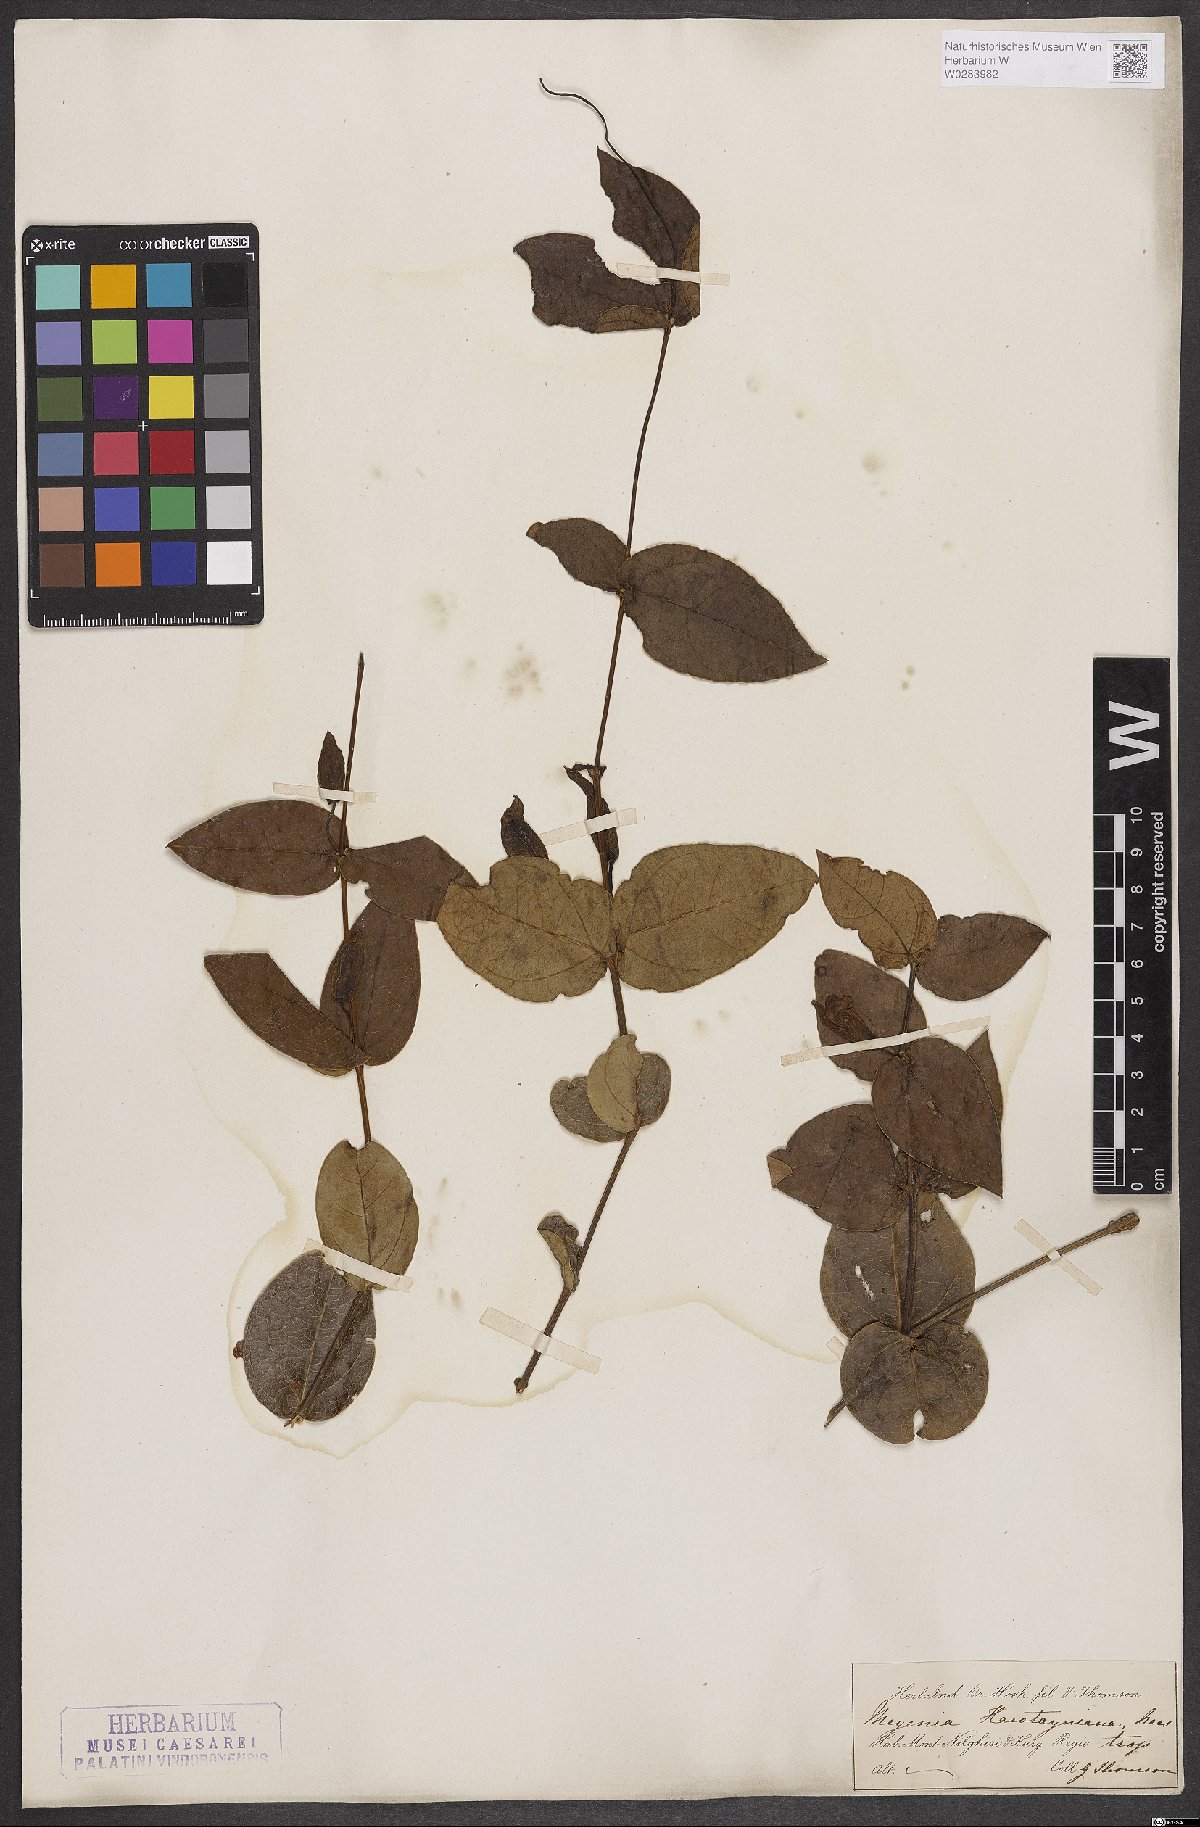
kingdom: Plantae
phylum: Tracheophyta
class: Magnoliopsida
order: Lamiales
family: Acanthaceae
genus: Meyenia
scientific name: Meyenia hawtayneana
